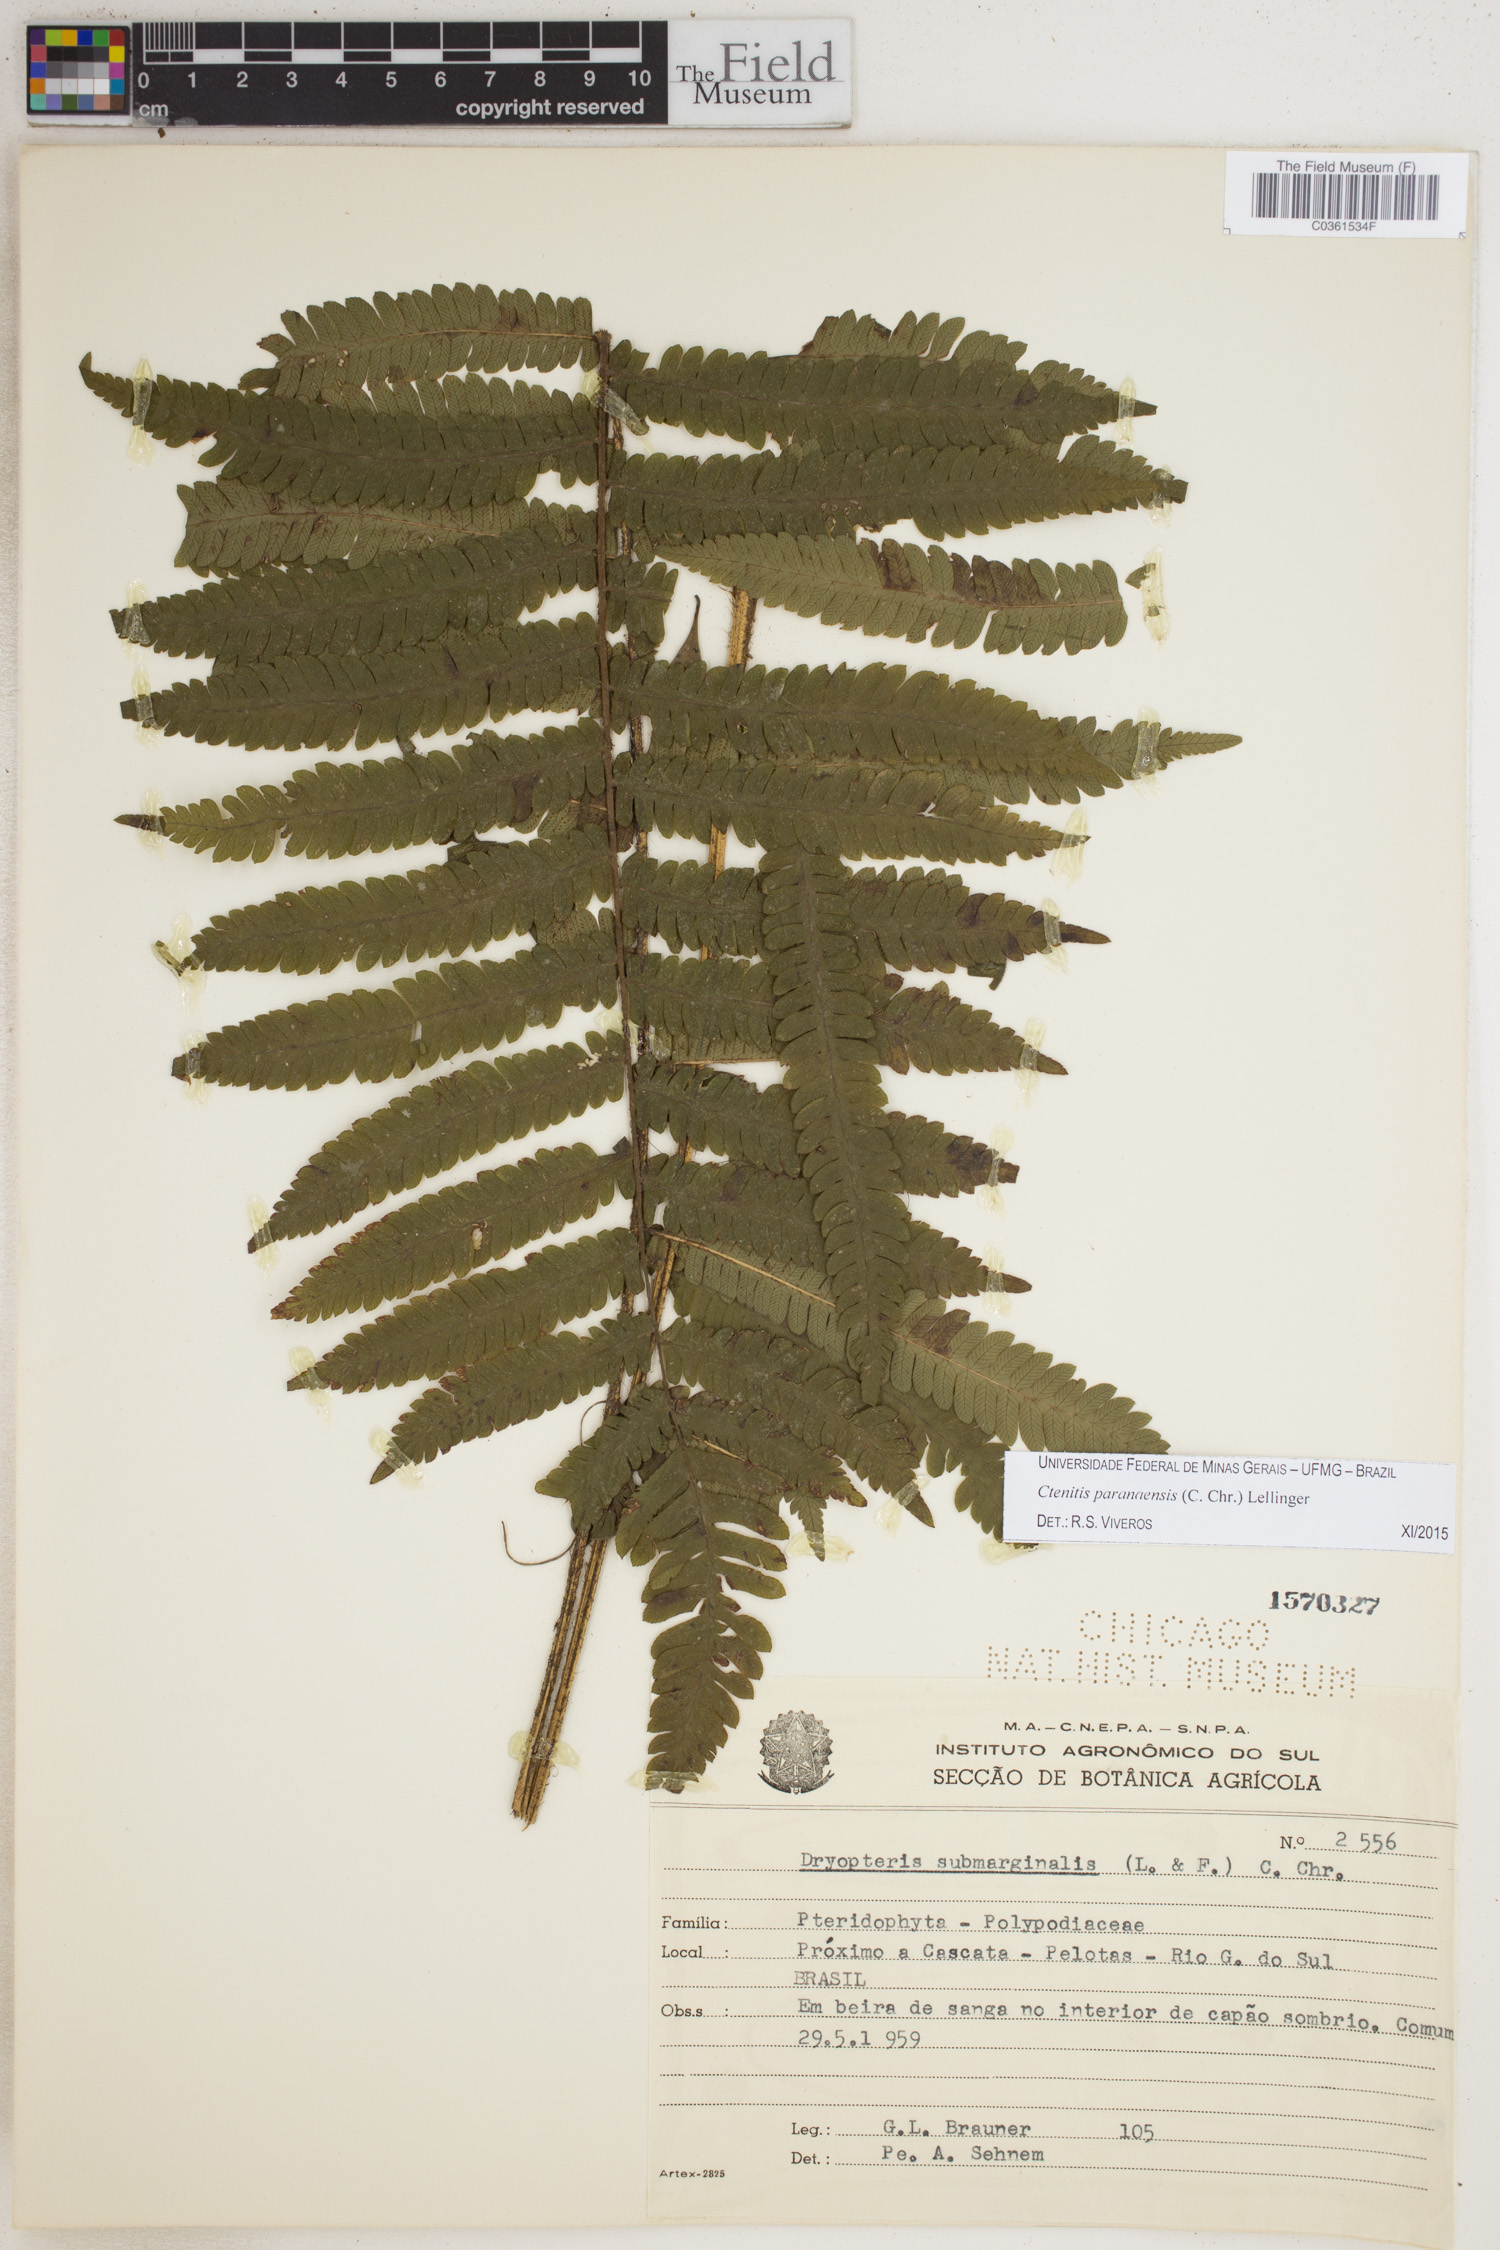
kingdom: Plantae
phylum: Tracheophyta
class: Polypodiopsida
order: Polypodiales
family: Dryopteridaceae
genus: Ctenitis
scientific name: Ctenitis paranaensis
